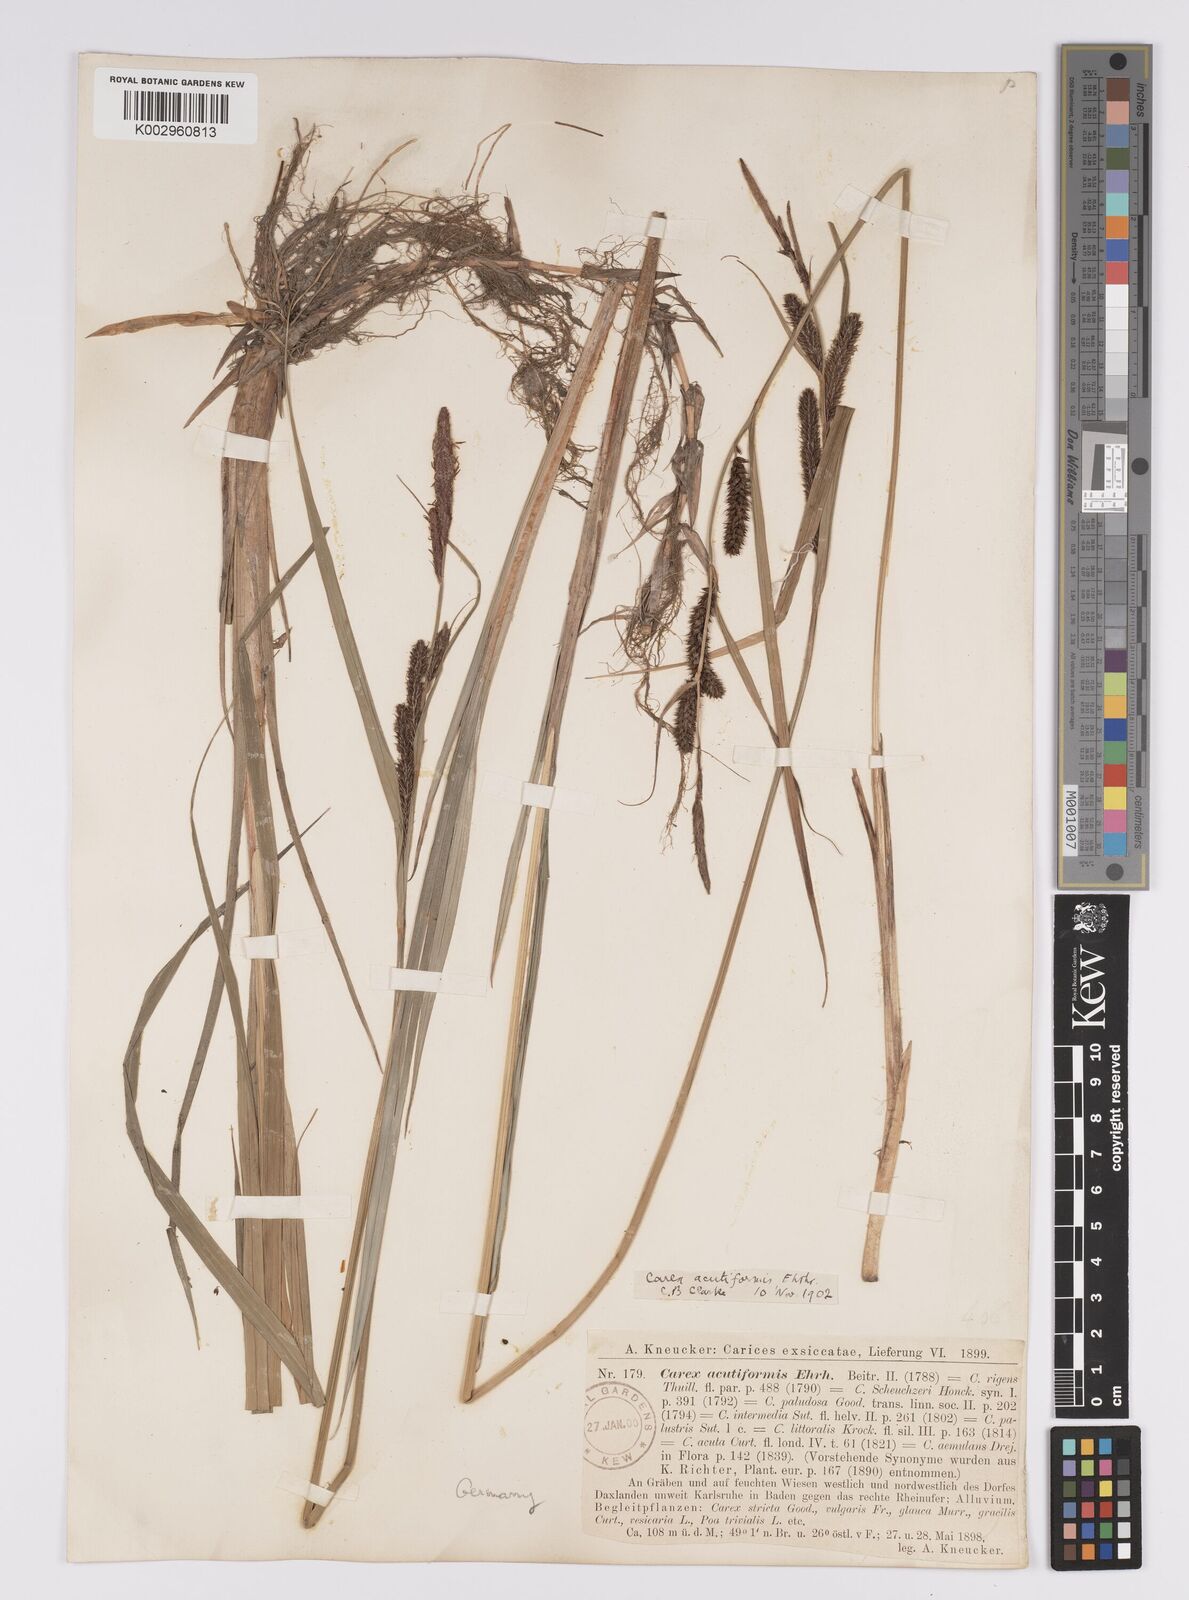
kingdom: Plantae
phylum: Tracheophyta
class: Liliopsida
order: Poales
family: Cyperaceae
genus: Carex
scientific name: Carex acutiformis
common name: Lesser pond-sedge
